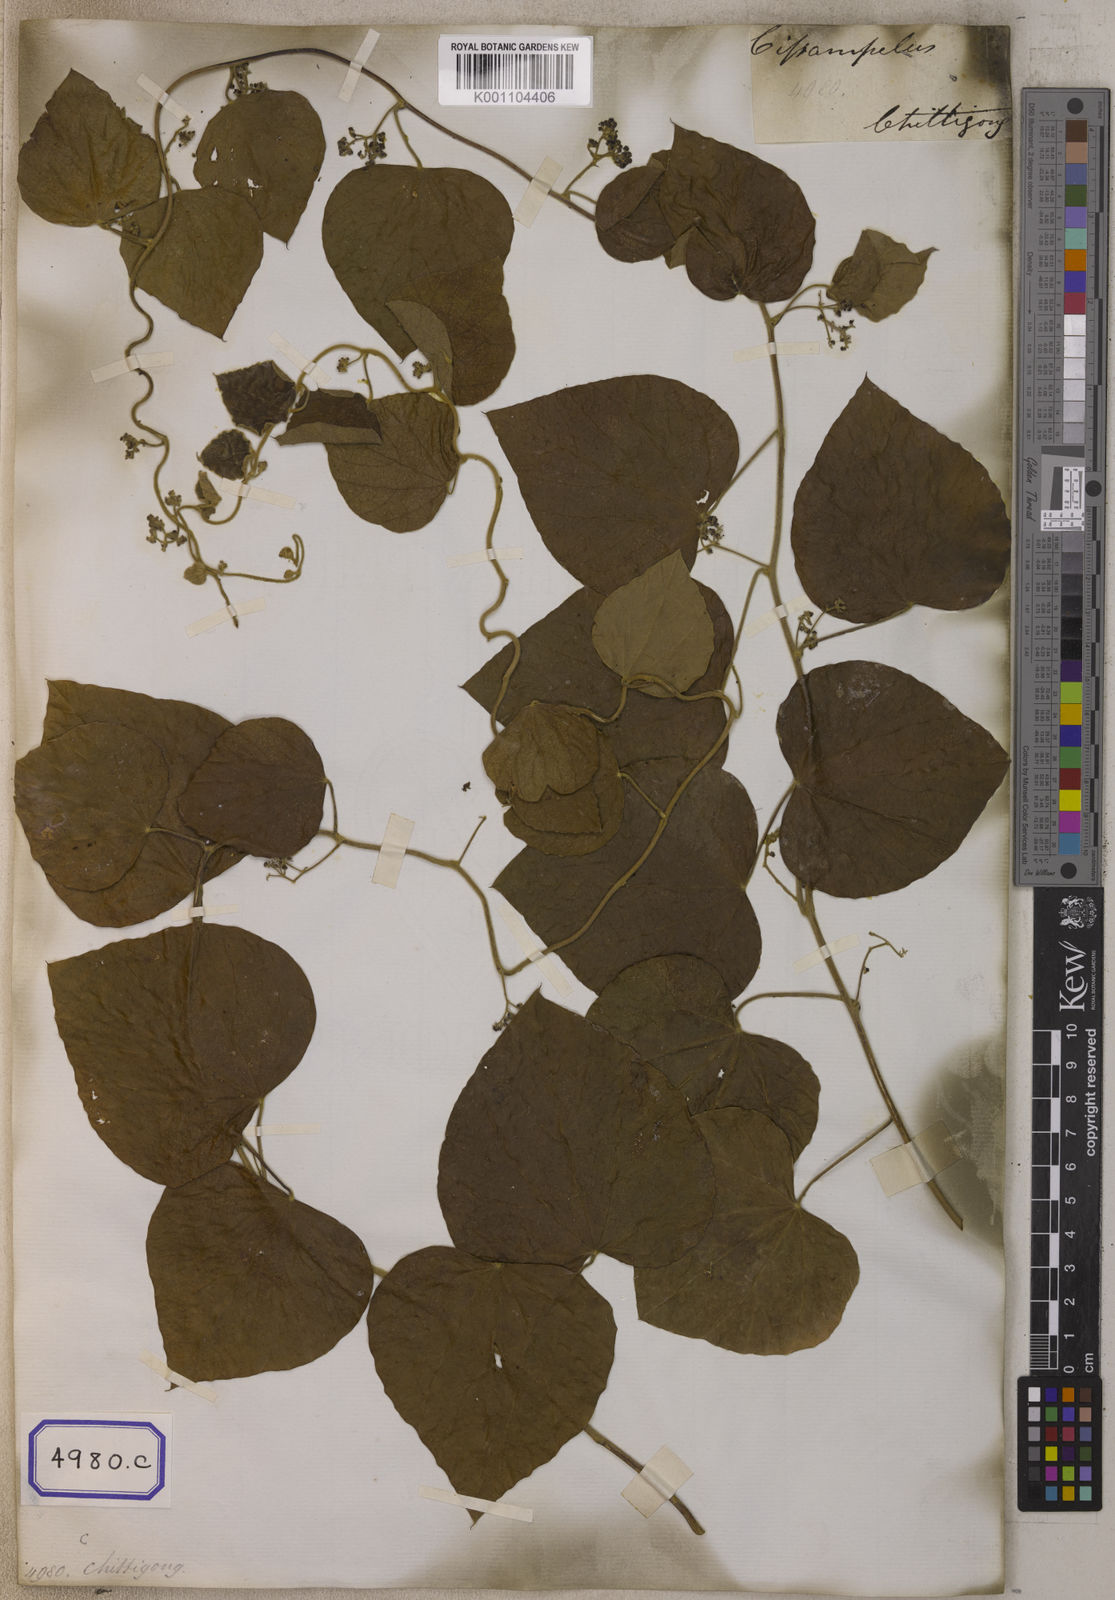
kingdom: Plantae
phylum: Tracheophyta
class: Magnoliopsida
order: Ranunculales
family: Menispermaceae
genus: Cissampelos
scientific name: Cissampelos
